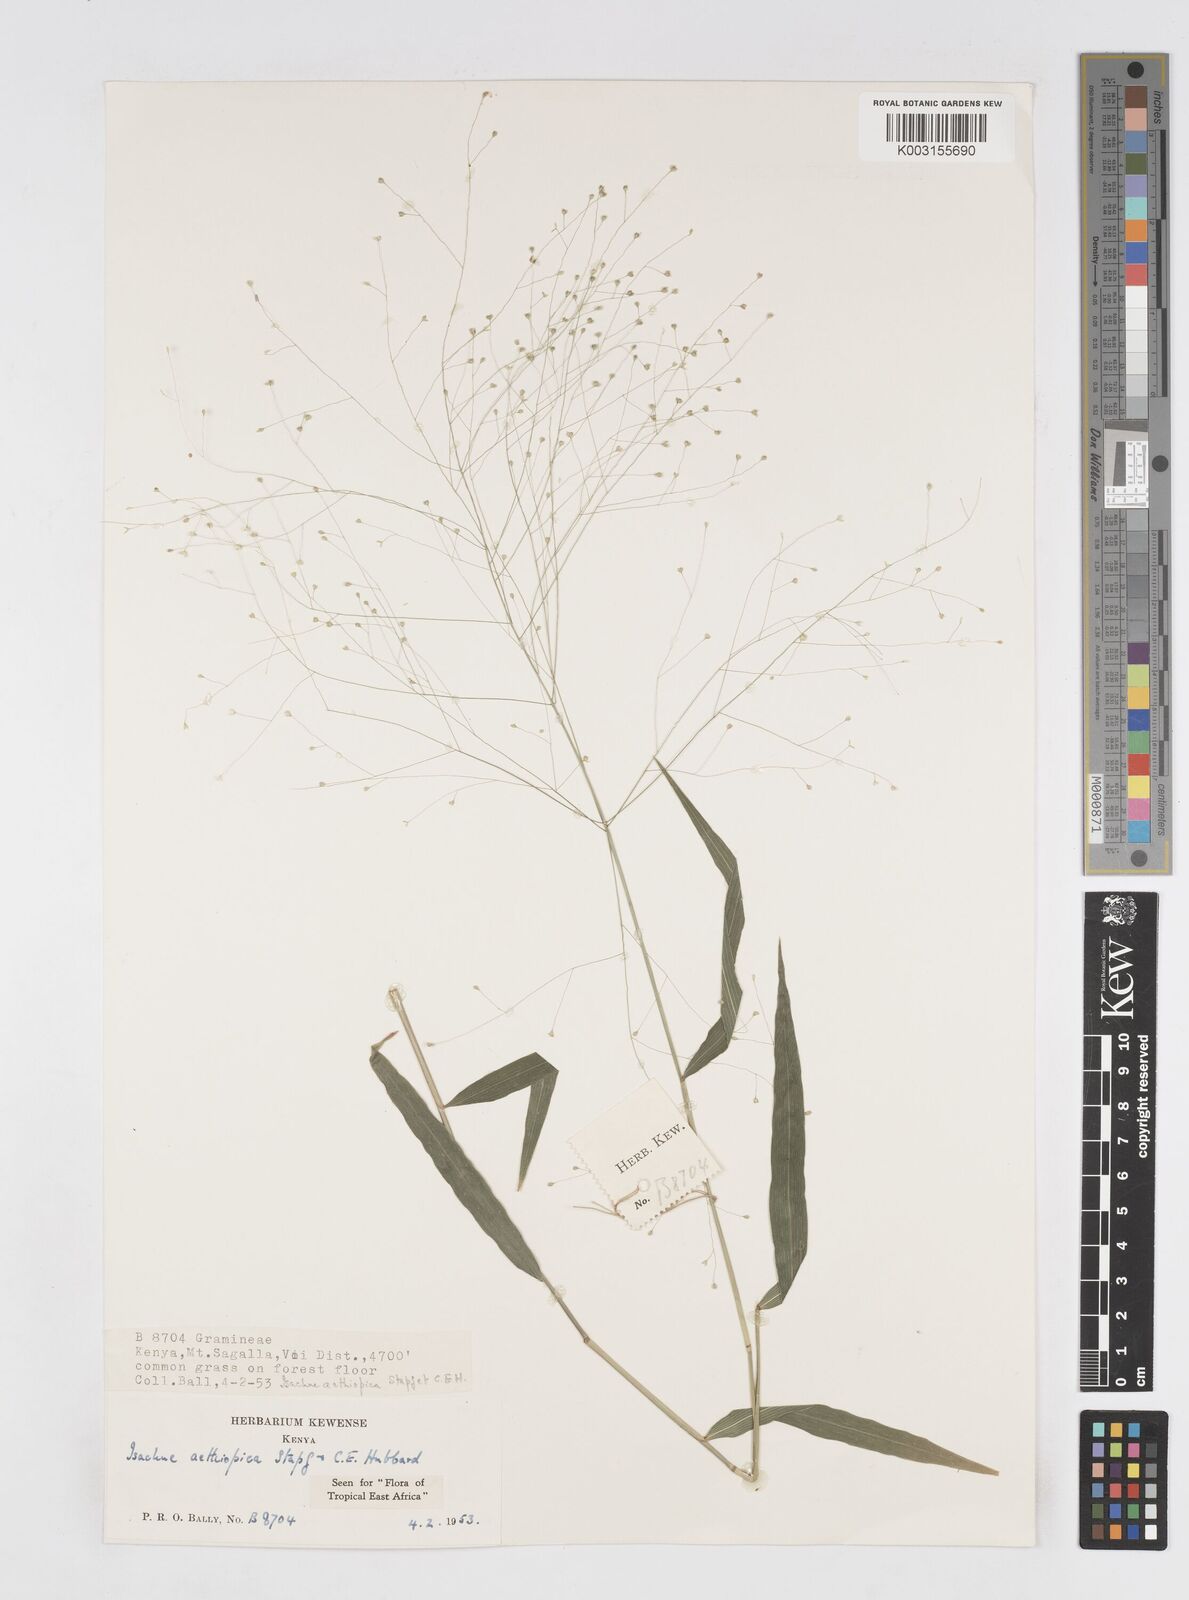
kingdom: Plantae
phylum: Tracheophyta
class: Liliopsida
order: Poales
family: Poaceae
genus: Isachne
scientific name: Isachne mauritiana
